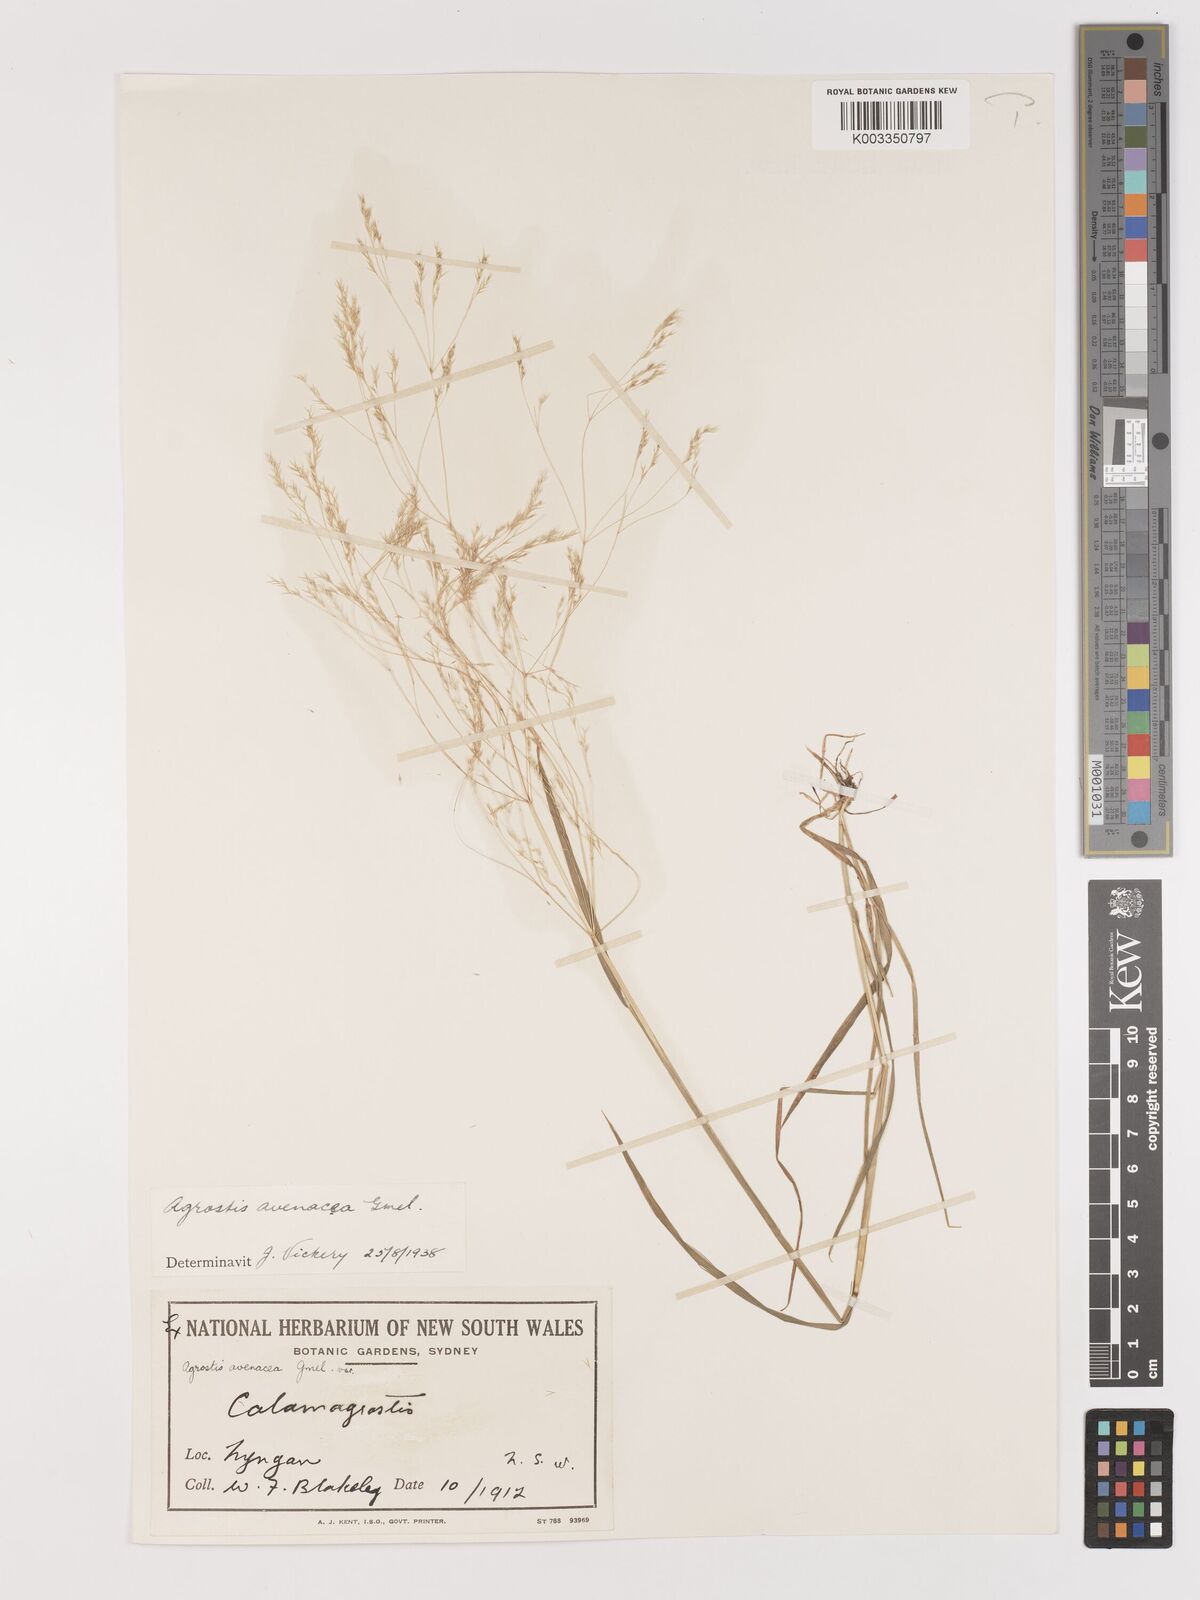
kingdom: Plantae
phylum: Tracheophyta
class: Liliopsida
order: Poales
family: Poaceae
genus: Lachnagrostis
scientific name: Lachnagrostis filiformis
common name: Bentgrass
